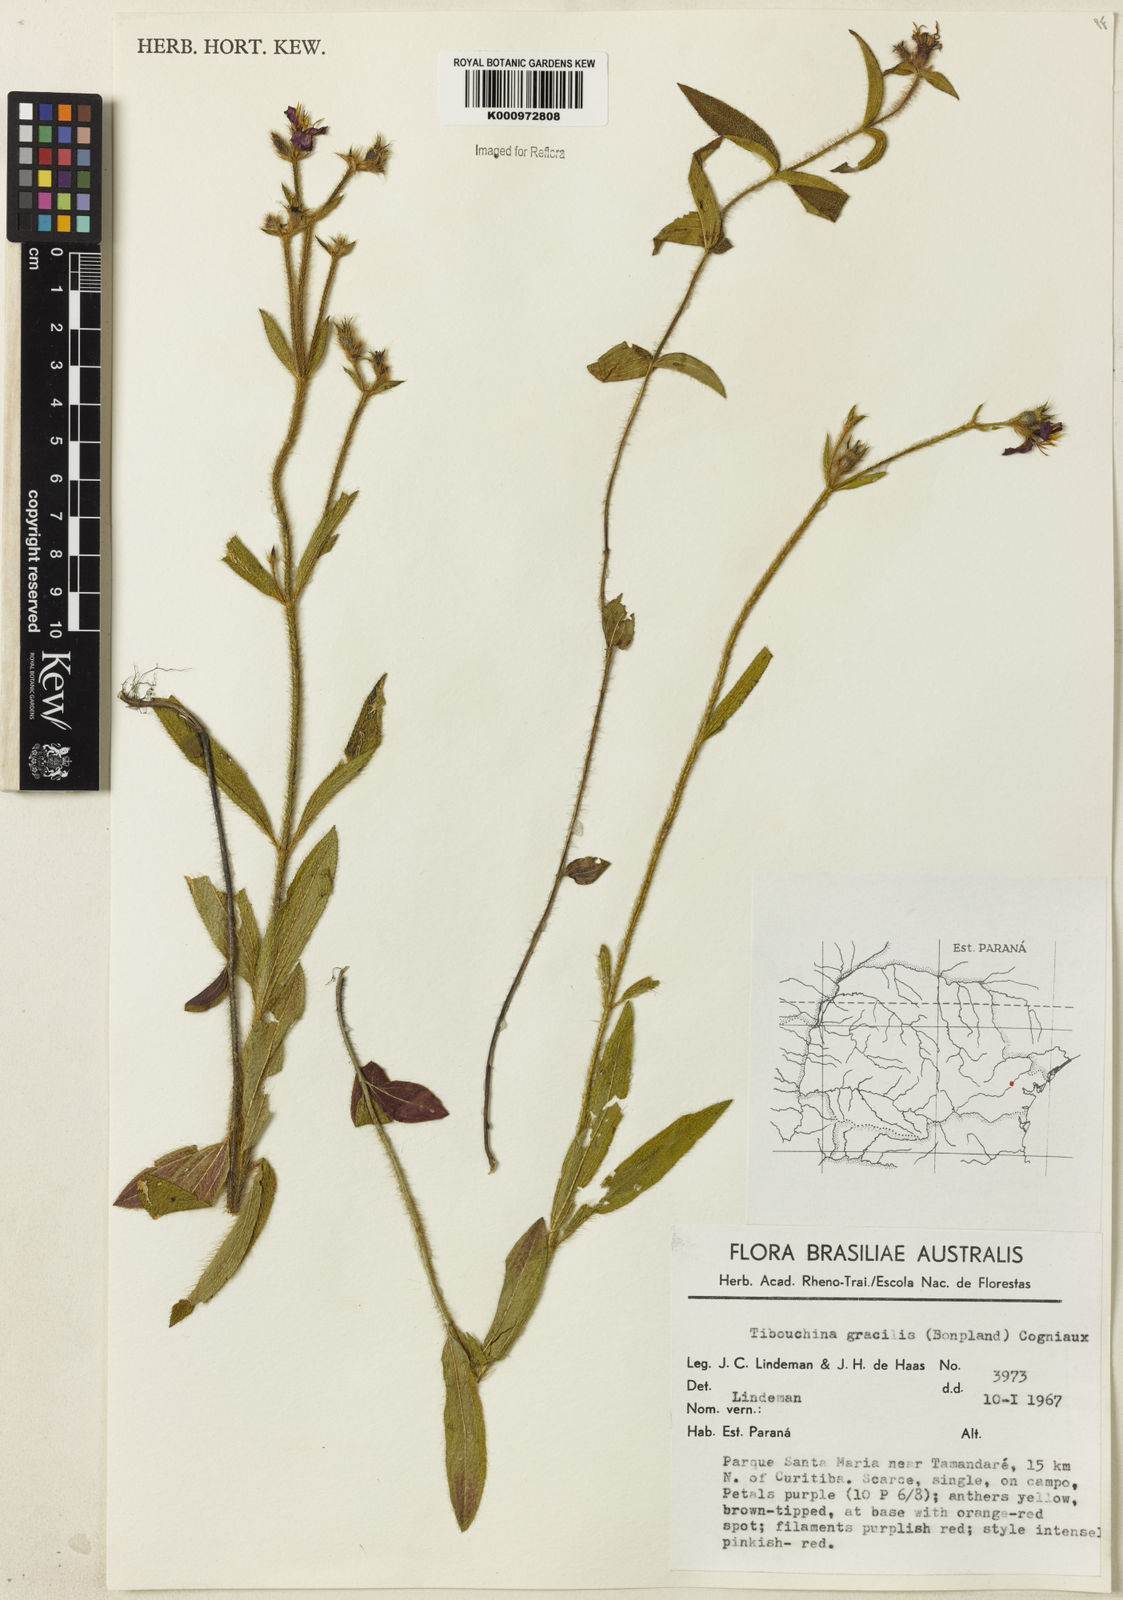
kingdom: Plantae
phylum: Tracheophyta
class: Magnoliopsida
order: Myrtales
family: Melastomataceae
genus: Chaetogastra
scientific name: Chaetogastra gracilis
